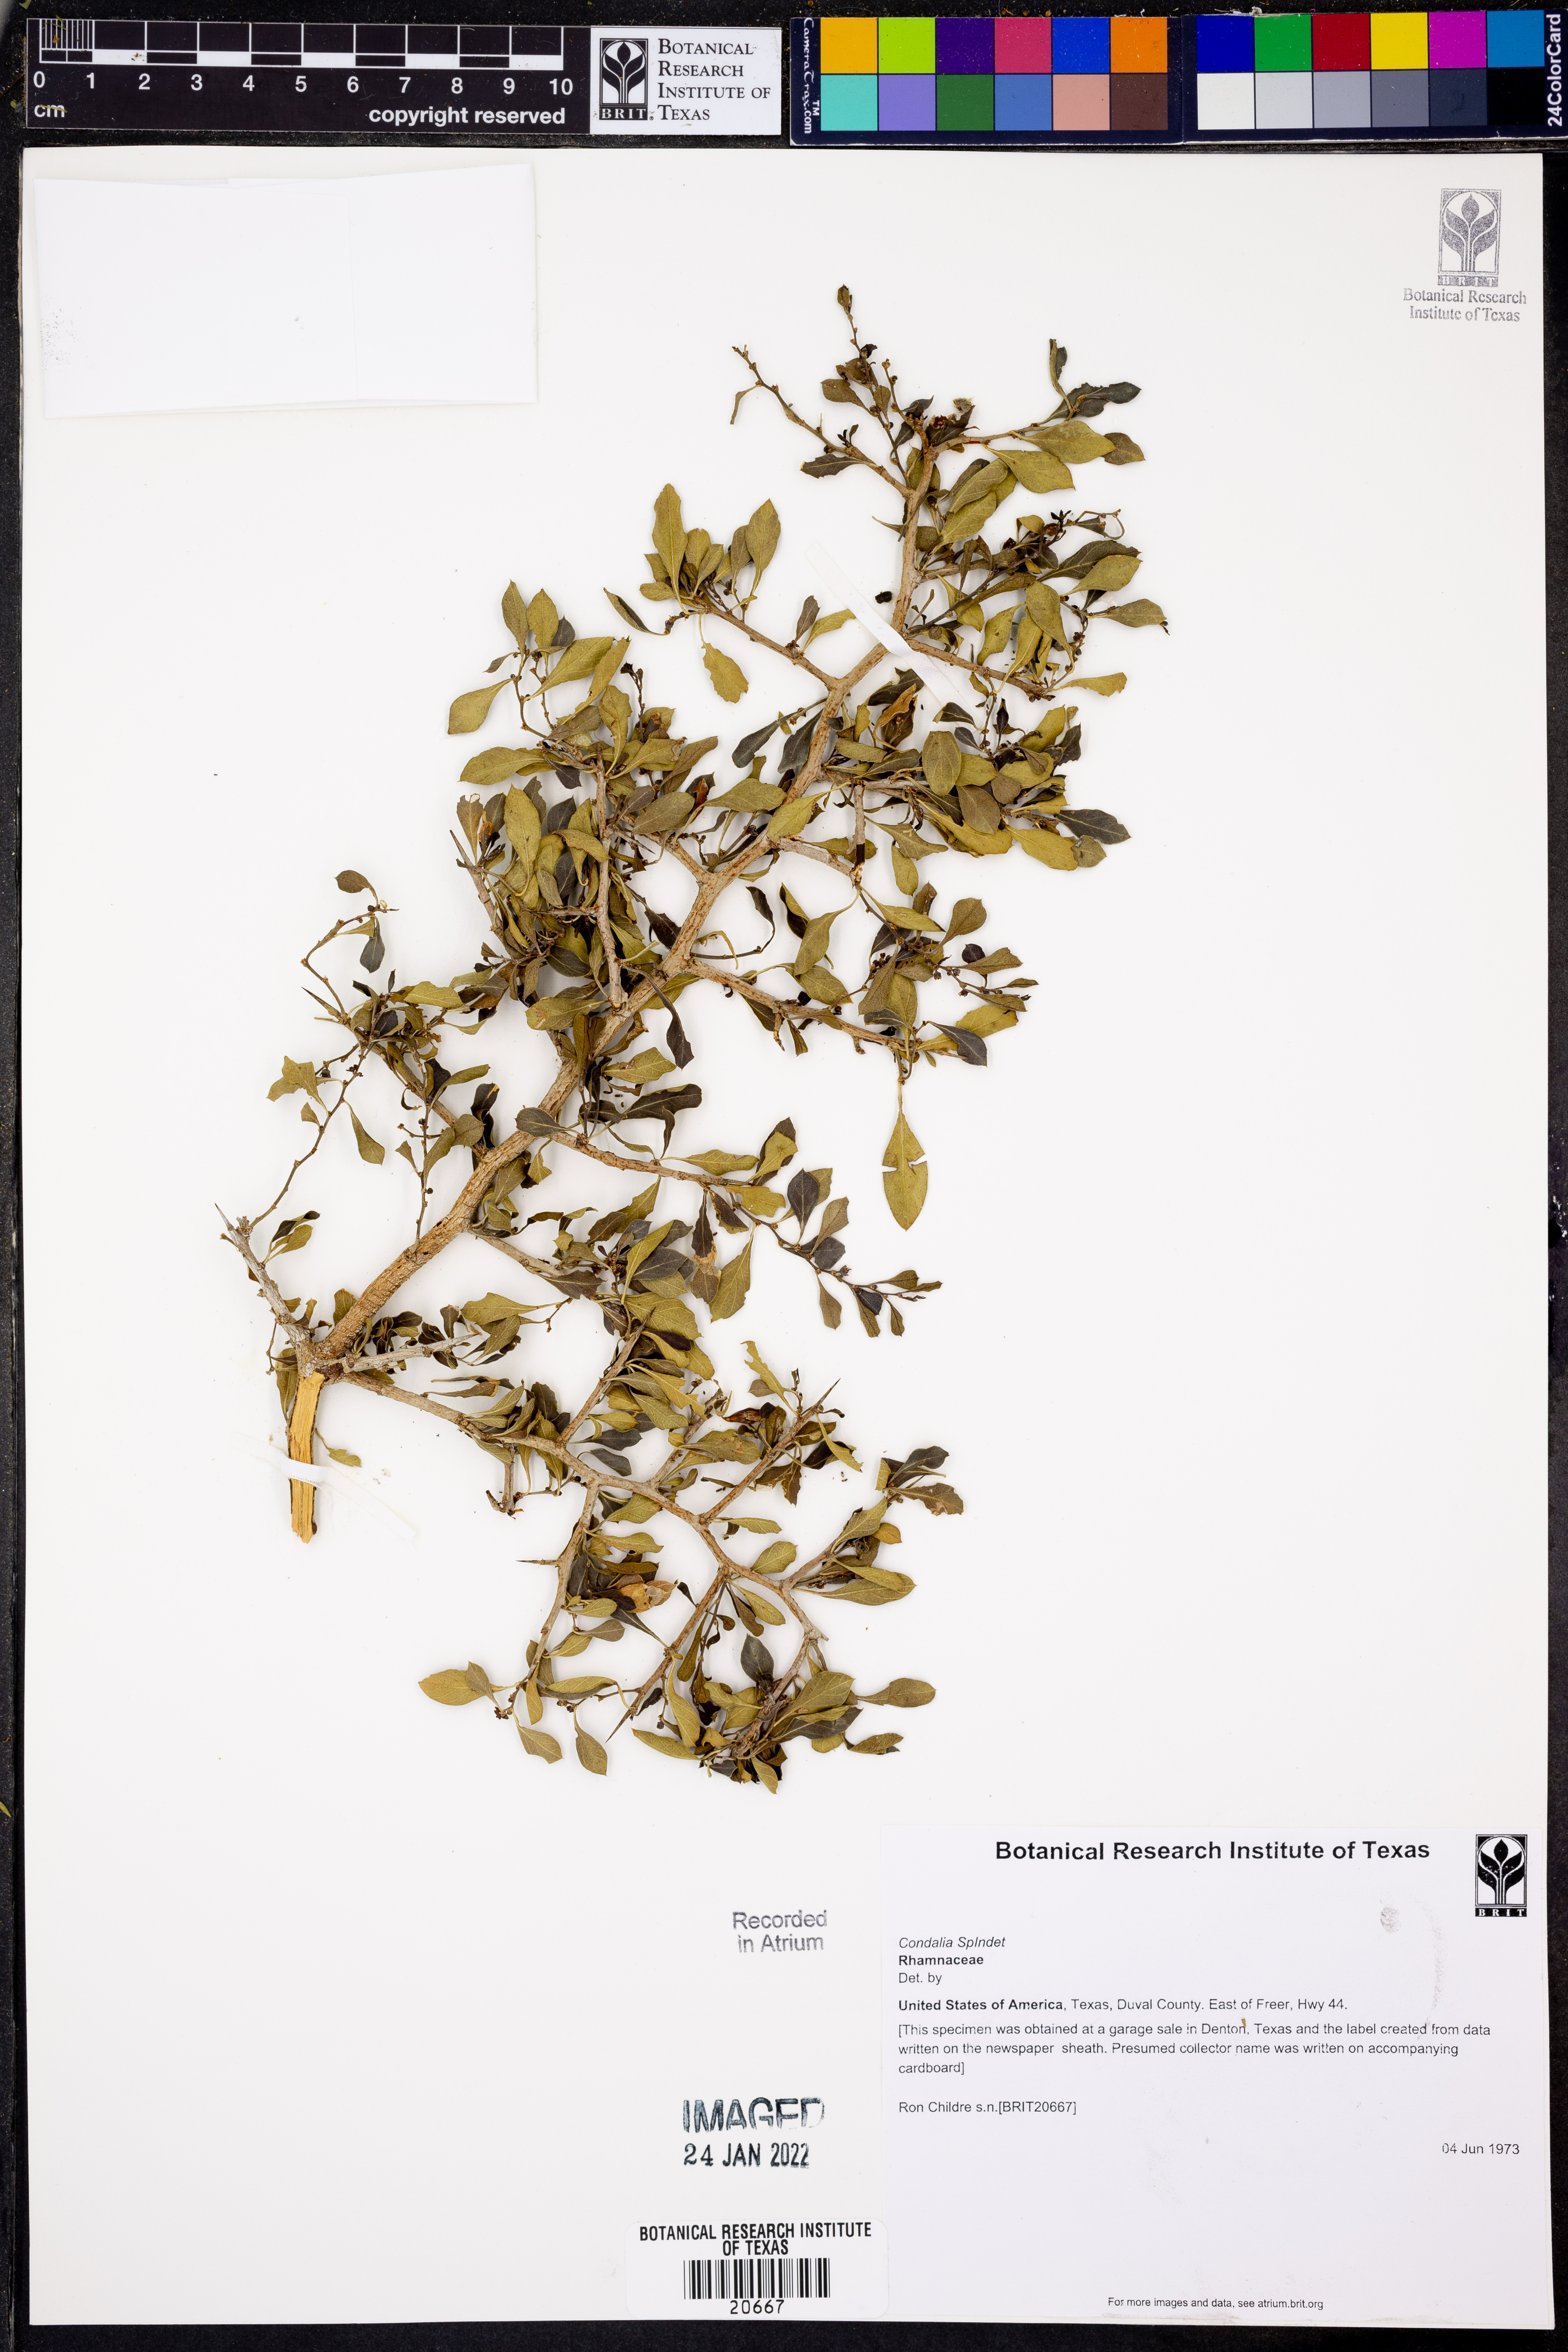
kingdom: Plantae
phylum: Tracheophyta
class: Magnoliopsida
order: Rosales
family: Rhamnaceae
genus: Condalia
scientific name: Condalia
